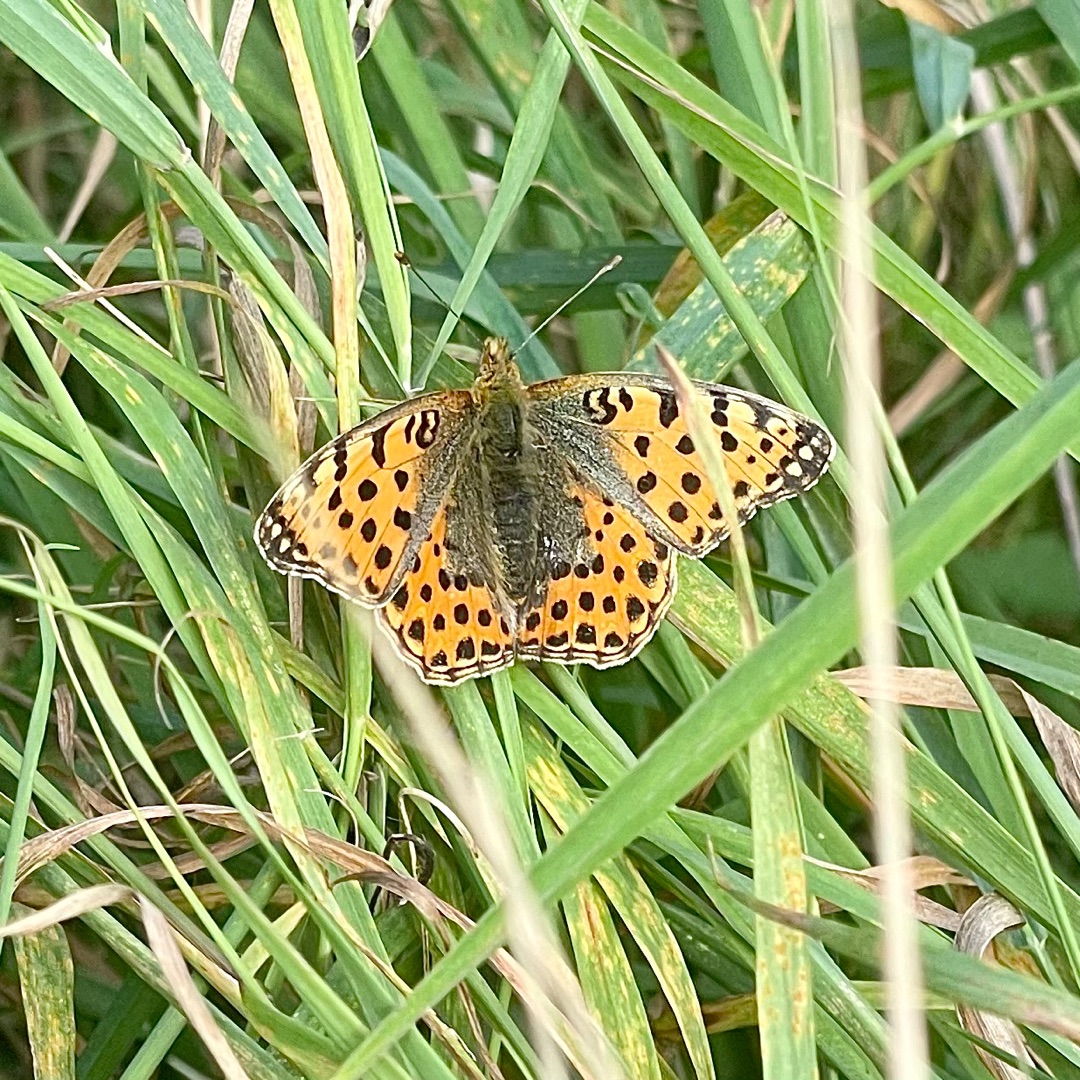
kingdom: Animalia
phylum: Arthropoda
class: Insecta
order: Lepidoptera
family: Nymphalidae
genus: Issoria
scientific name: Issoria lathonia
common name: Storplettet perlemorsommerfugl
